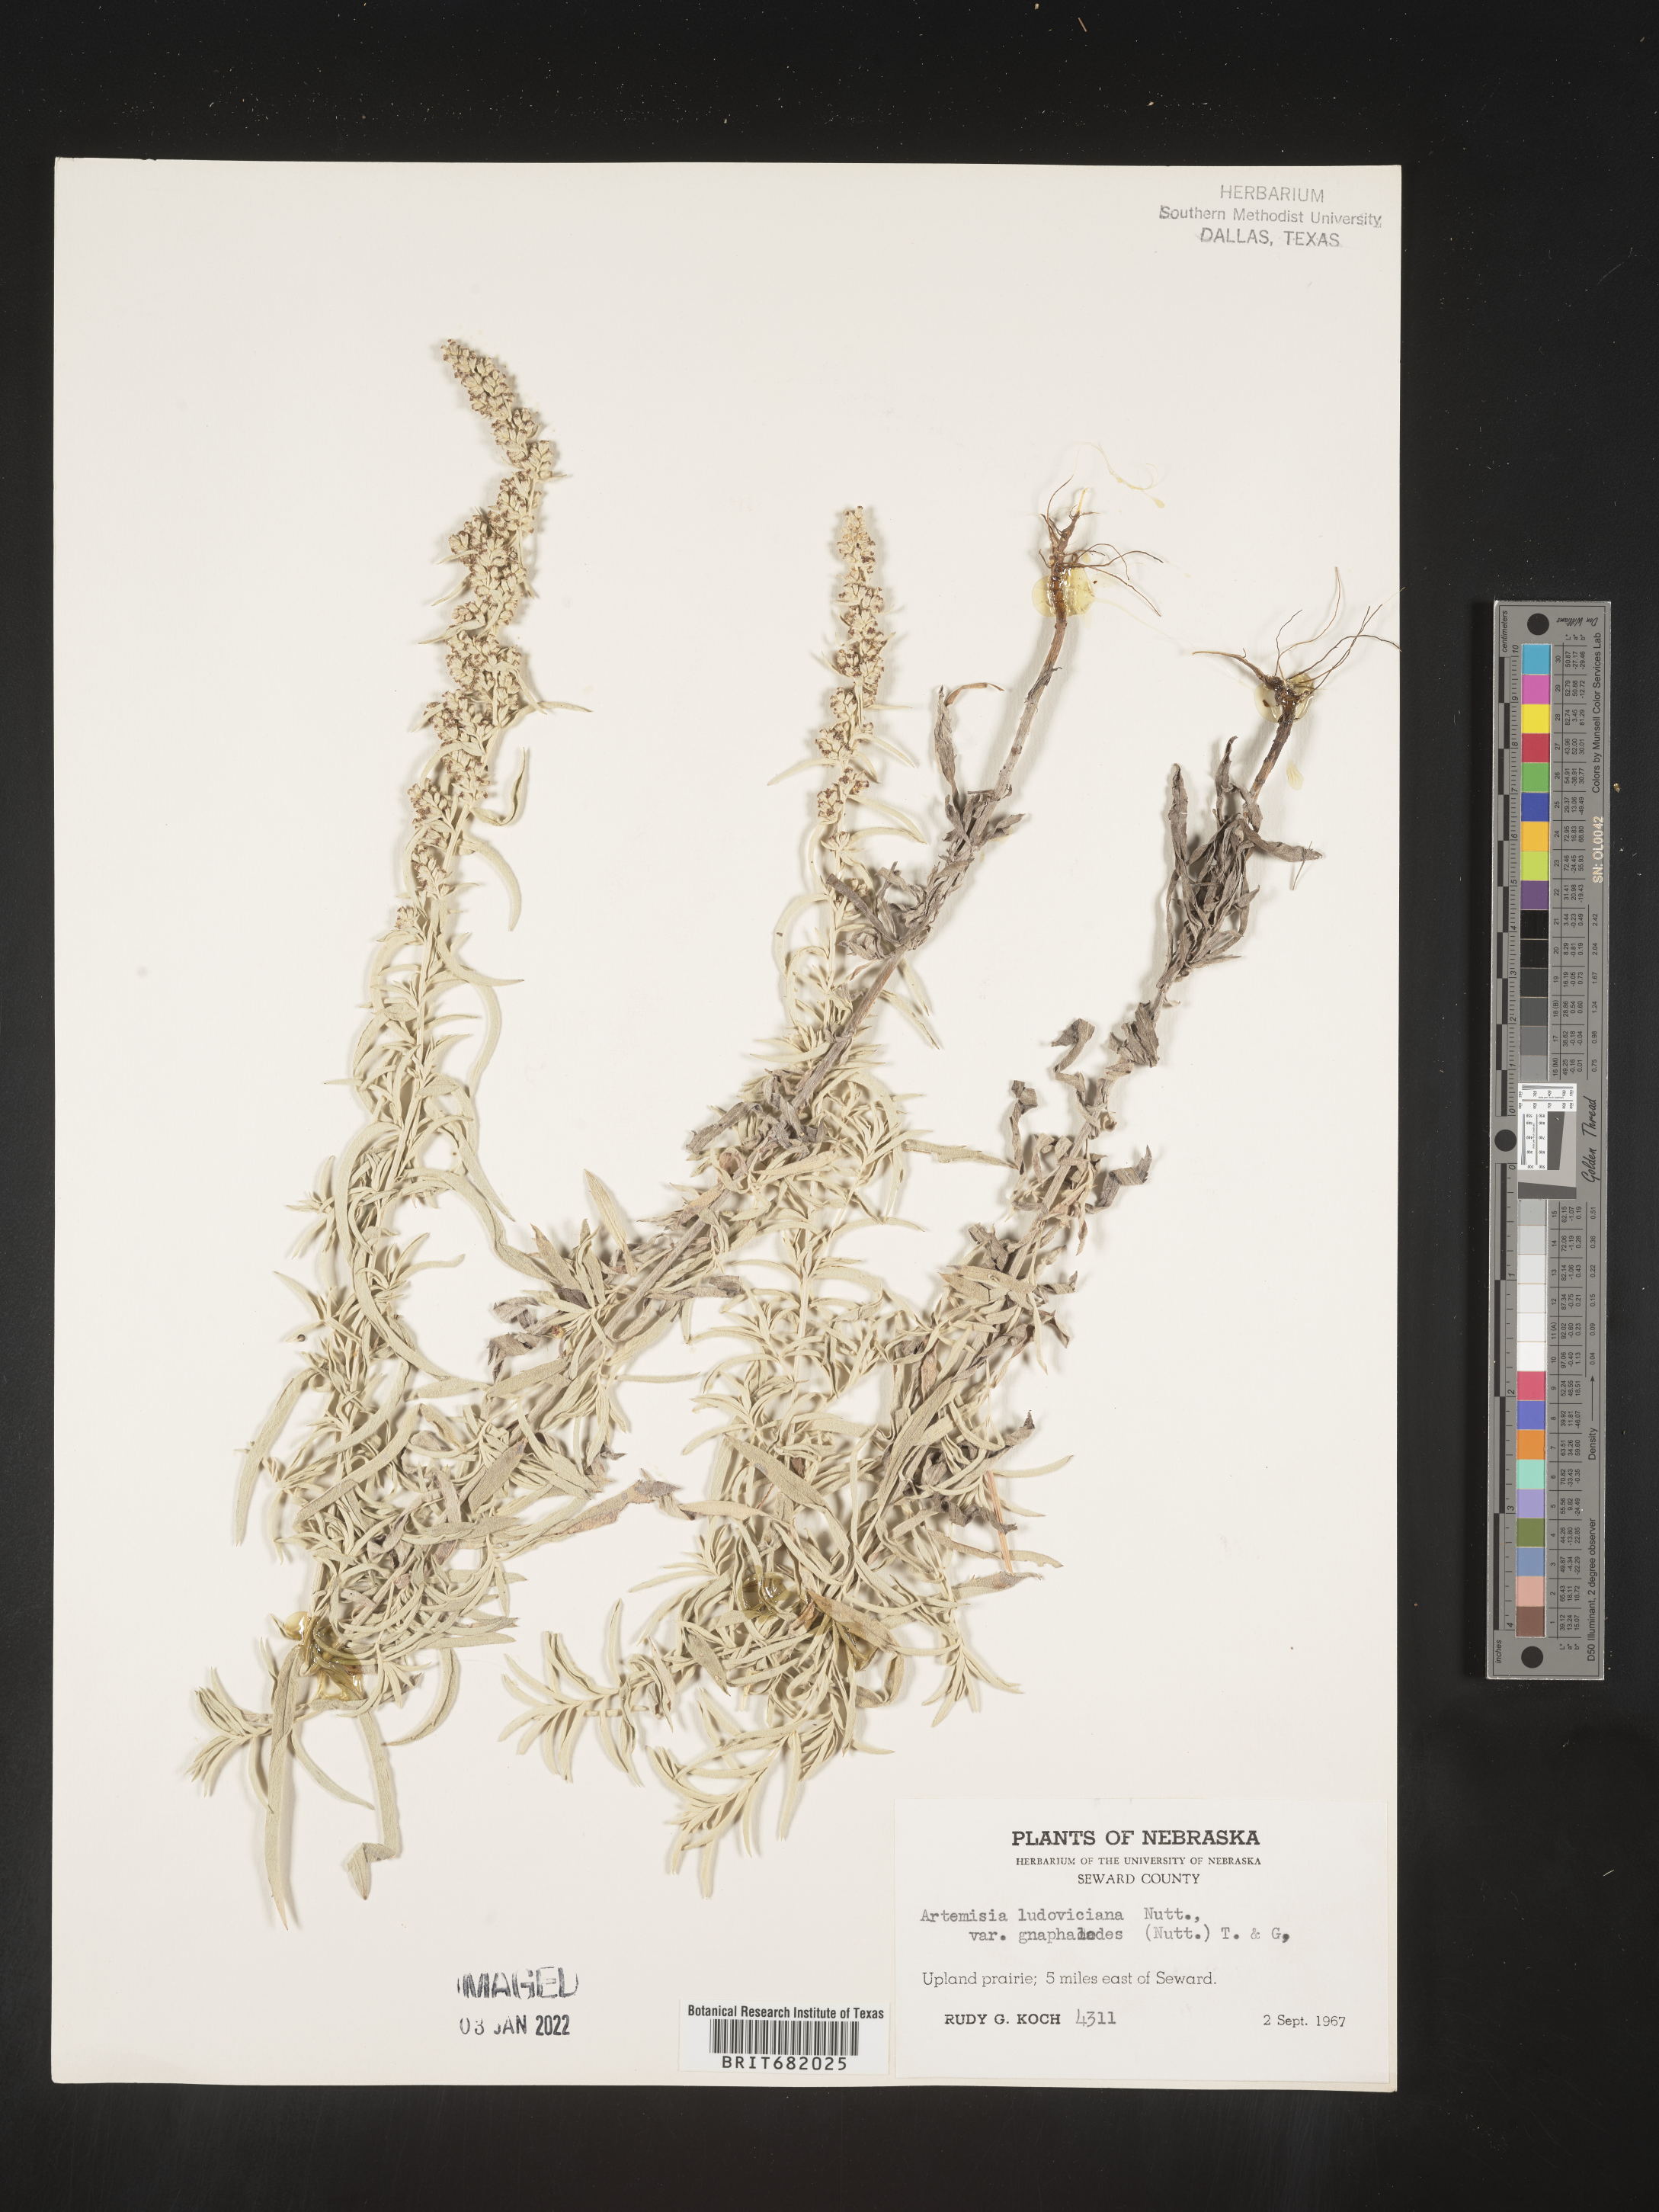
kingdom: Plantae
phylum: Tracheophyta
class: Magnoliopsida
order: Asterales
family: Asteraceae
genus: Artemisia
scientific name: Artemisia ludoviciana
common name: Western mugwort
